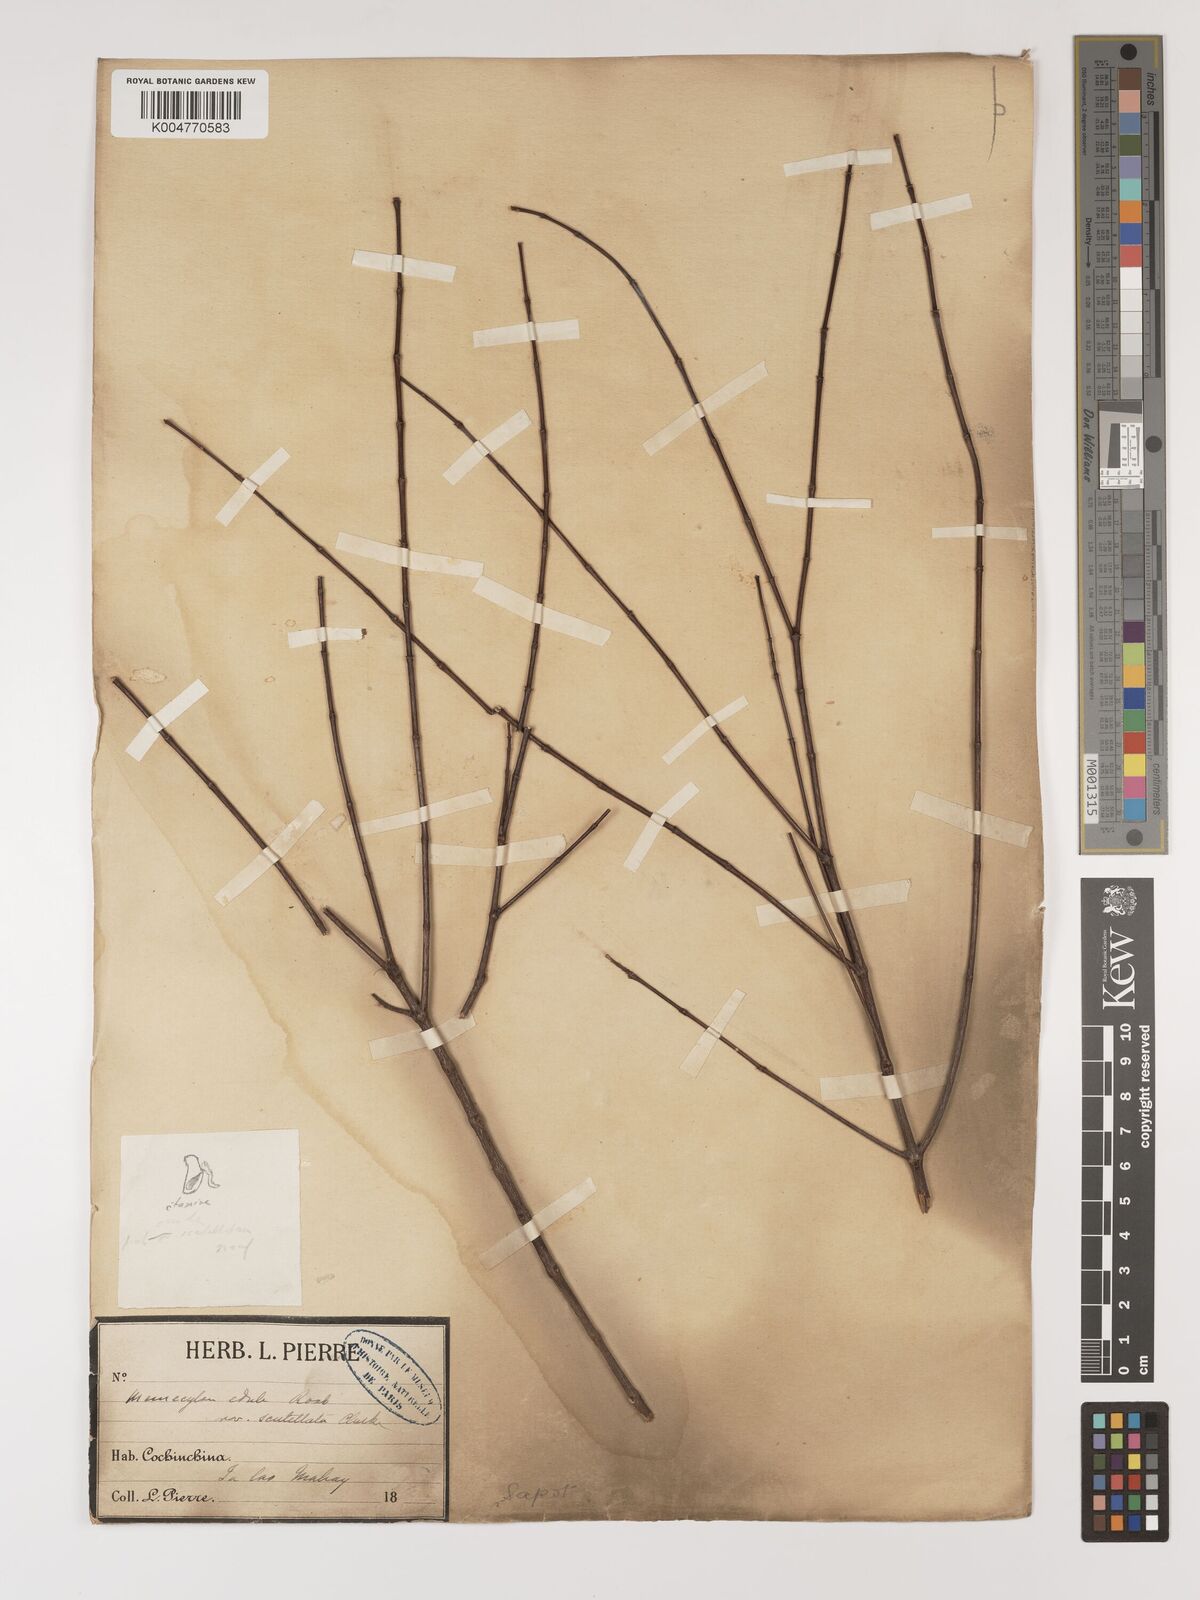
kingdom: Plantae
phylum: Tracheophyta
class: Magnoliopsida
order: Myrtales
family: Melastomataceae
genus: Memecylon
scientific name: Memecylon scutellatum
